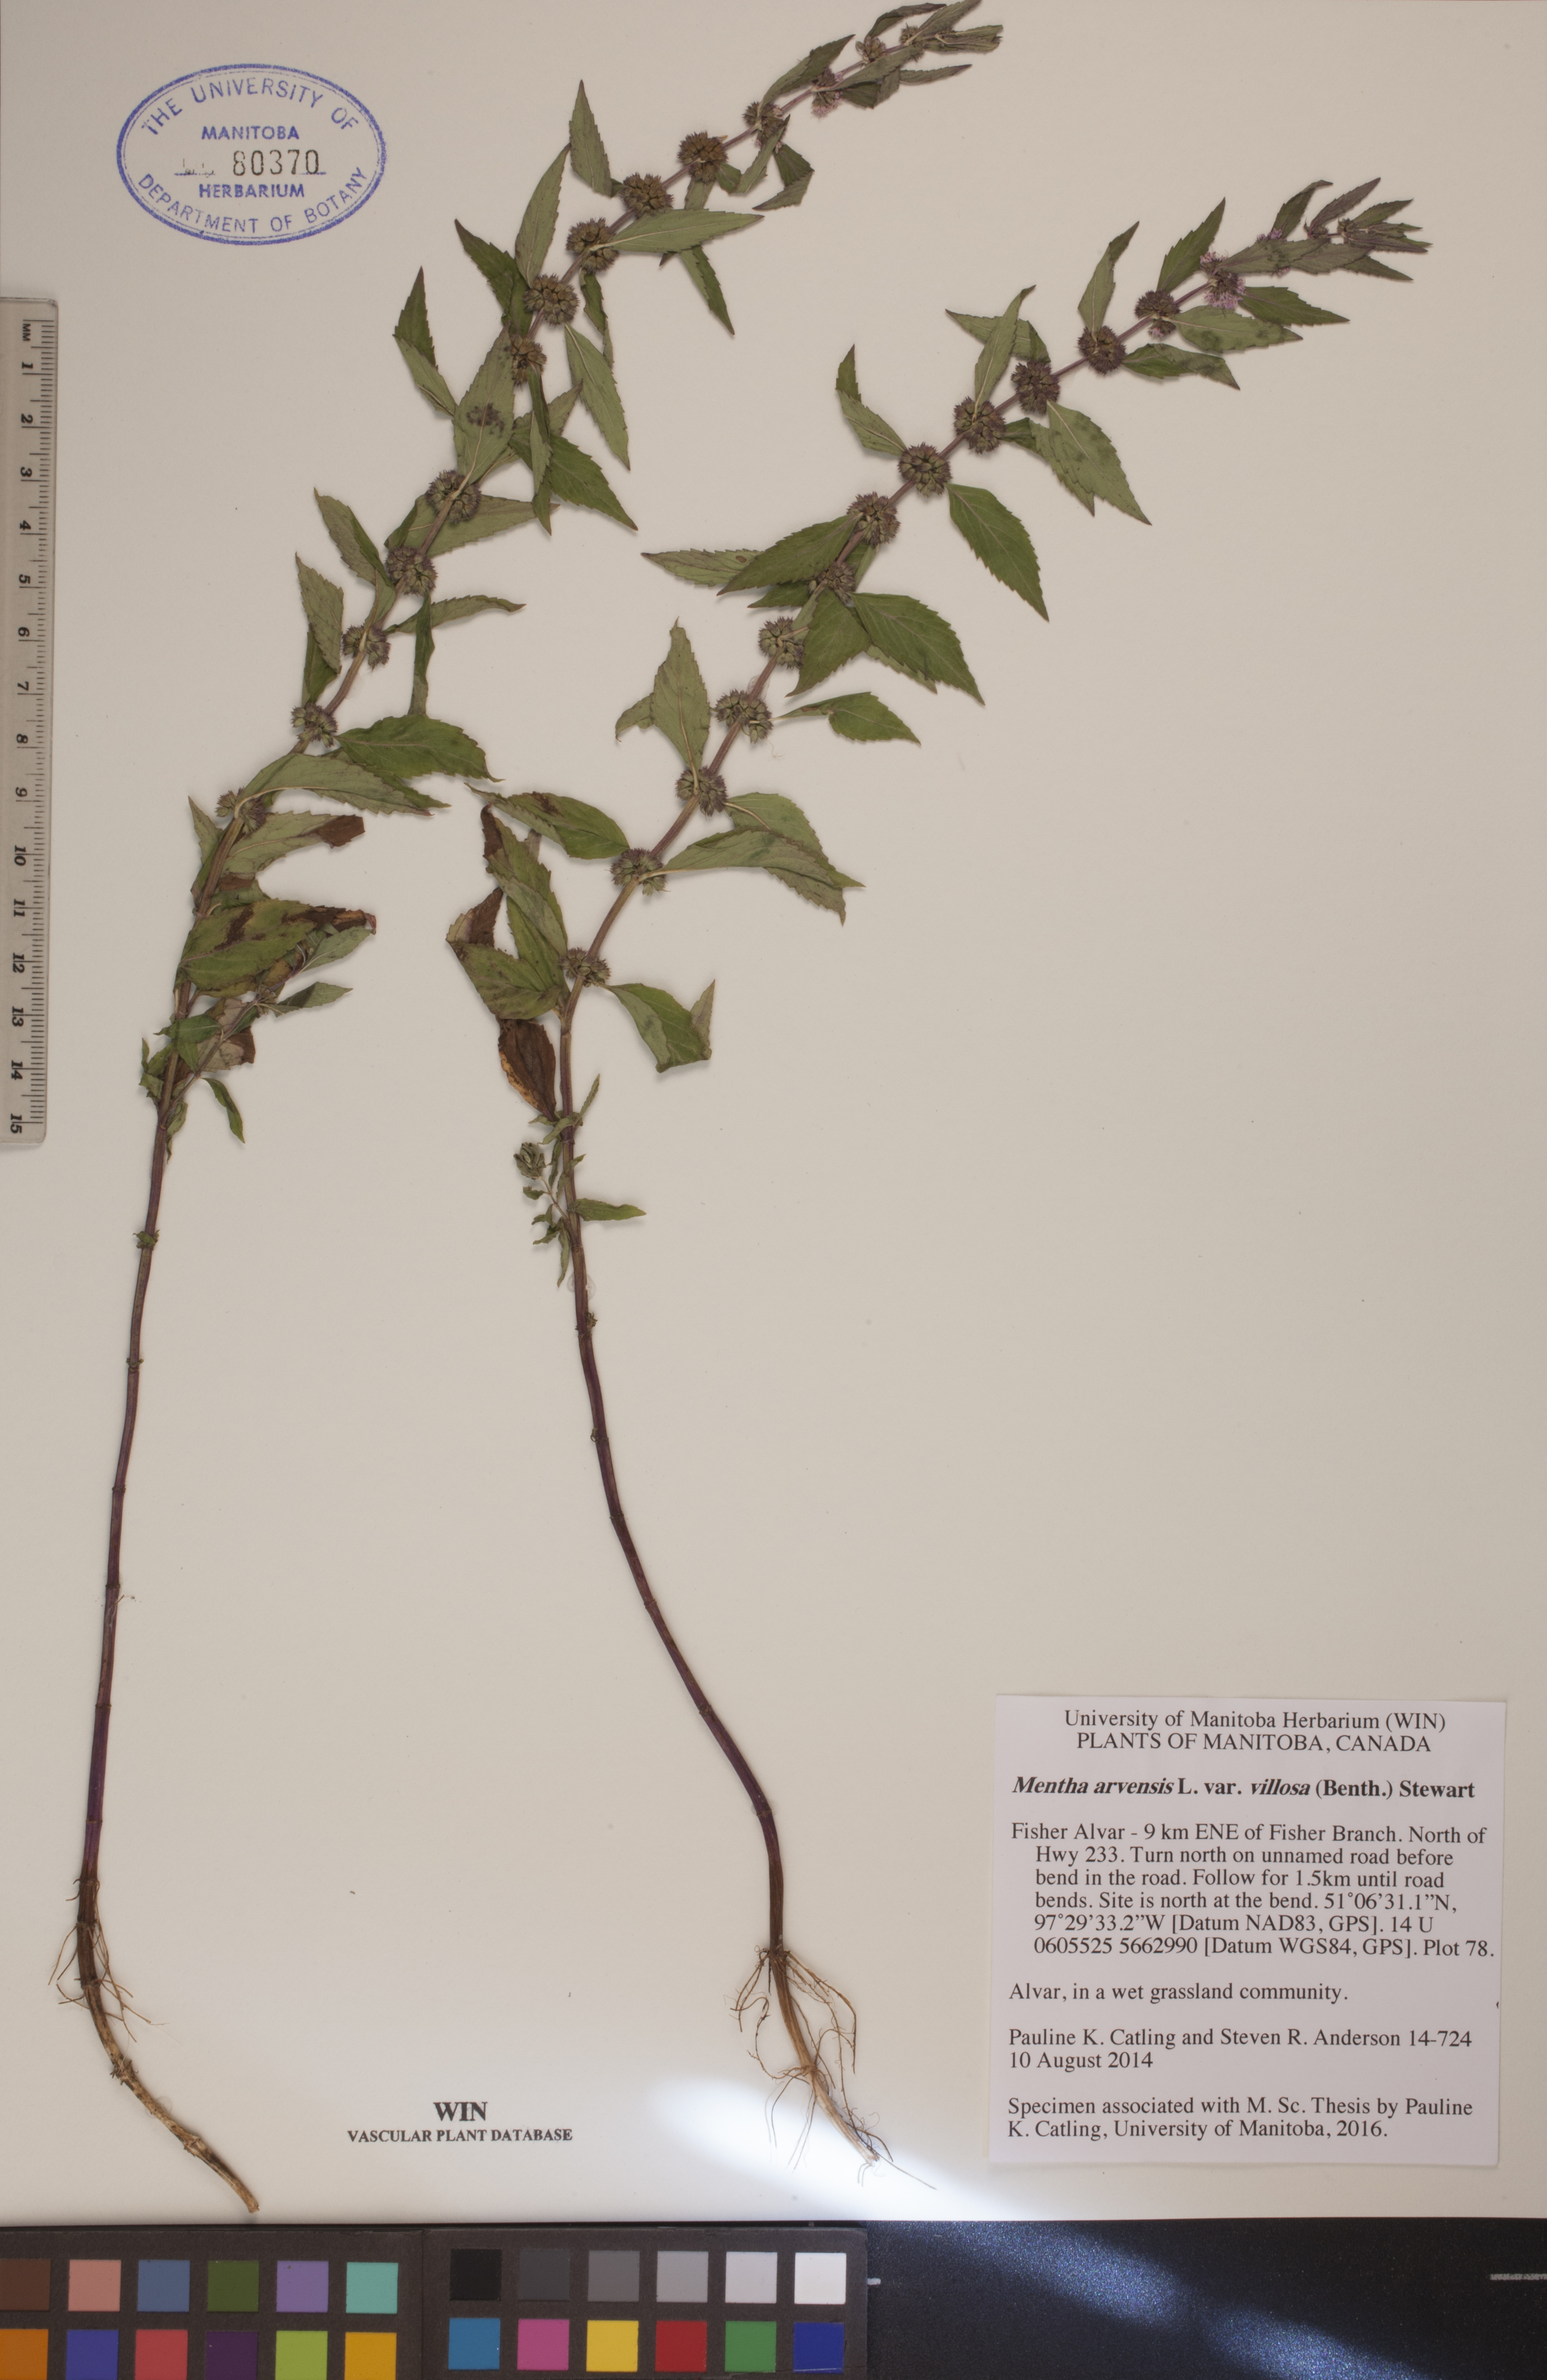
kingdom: Plantae
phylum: Tracheophyta
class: Magnoliopsida
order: Lamiales
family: Lamiaceae
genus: Mentha
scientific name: Mentha canadensis
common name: American corn mint
